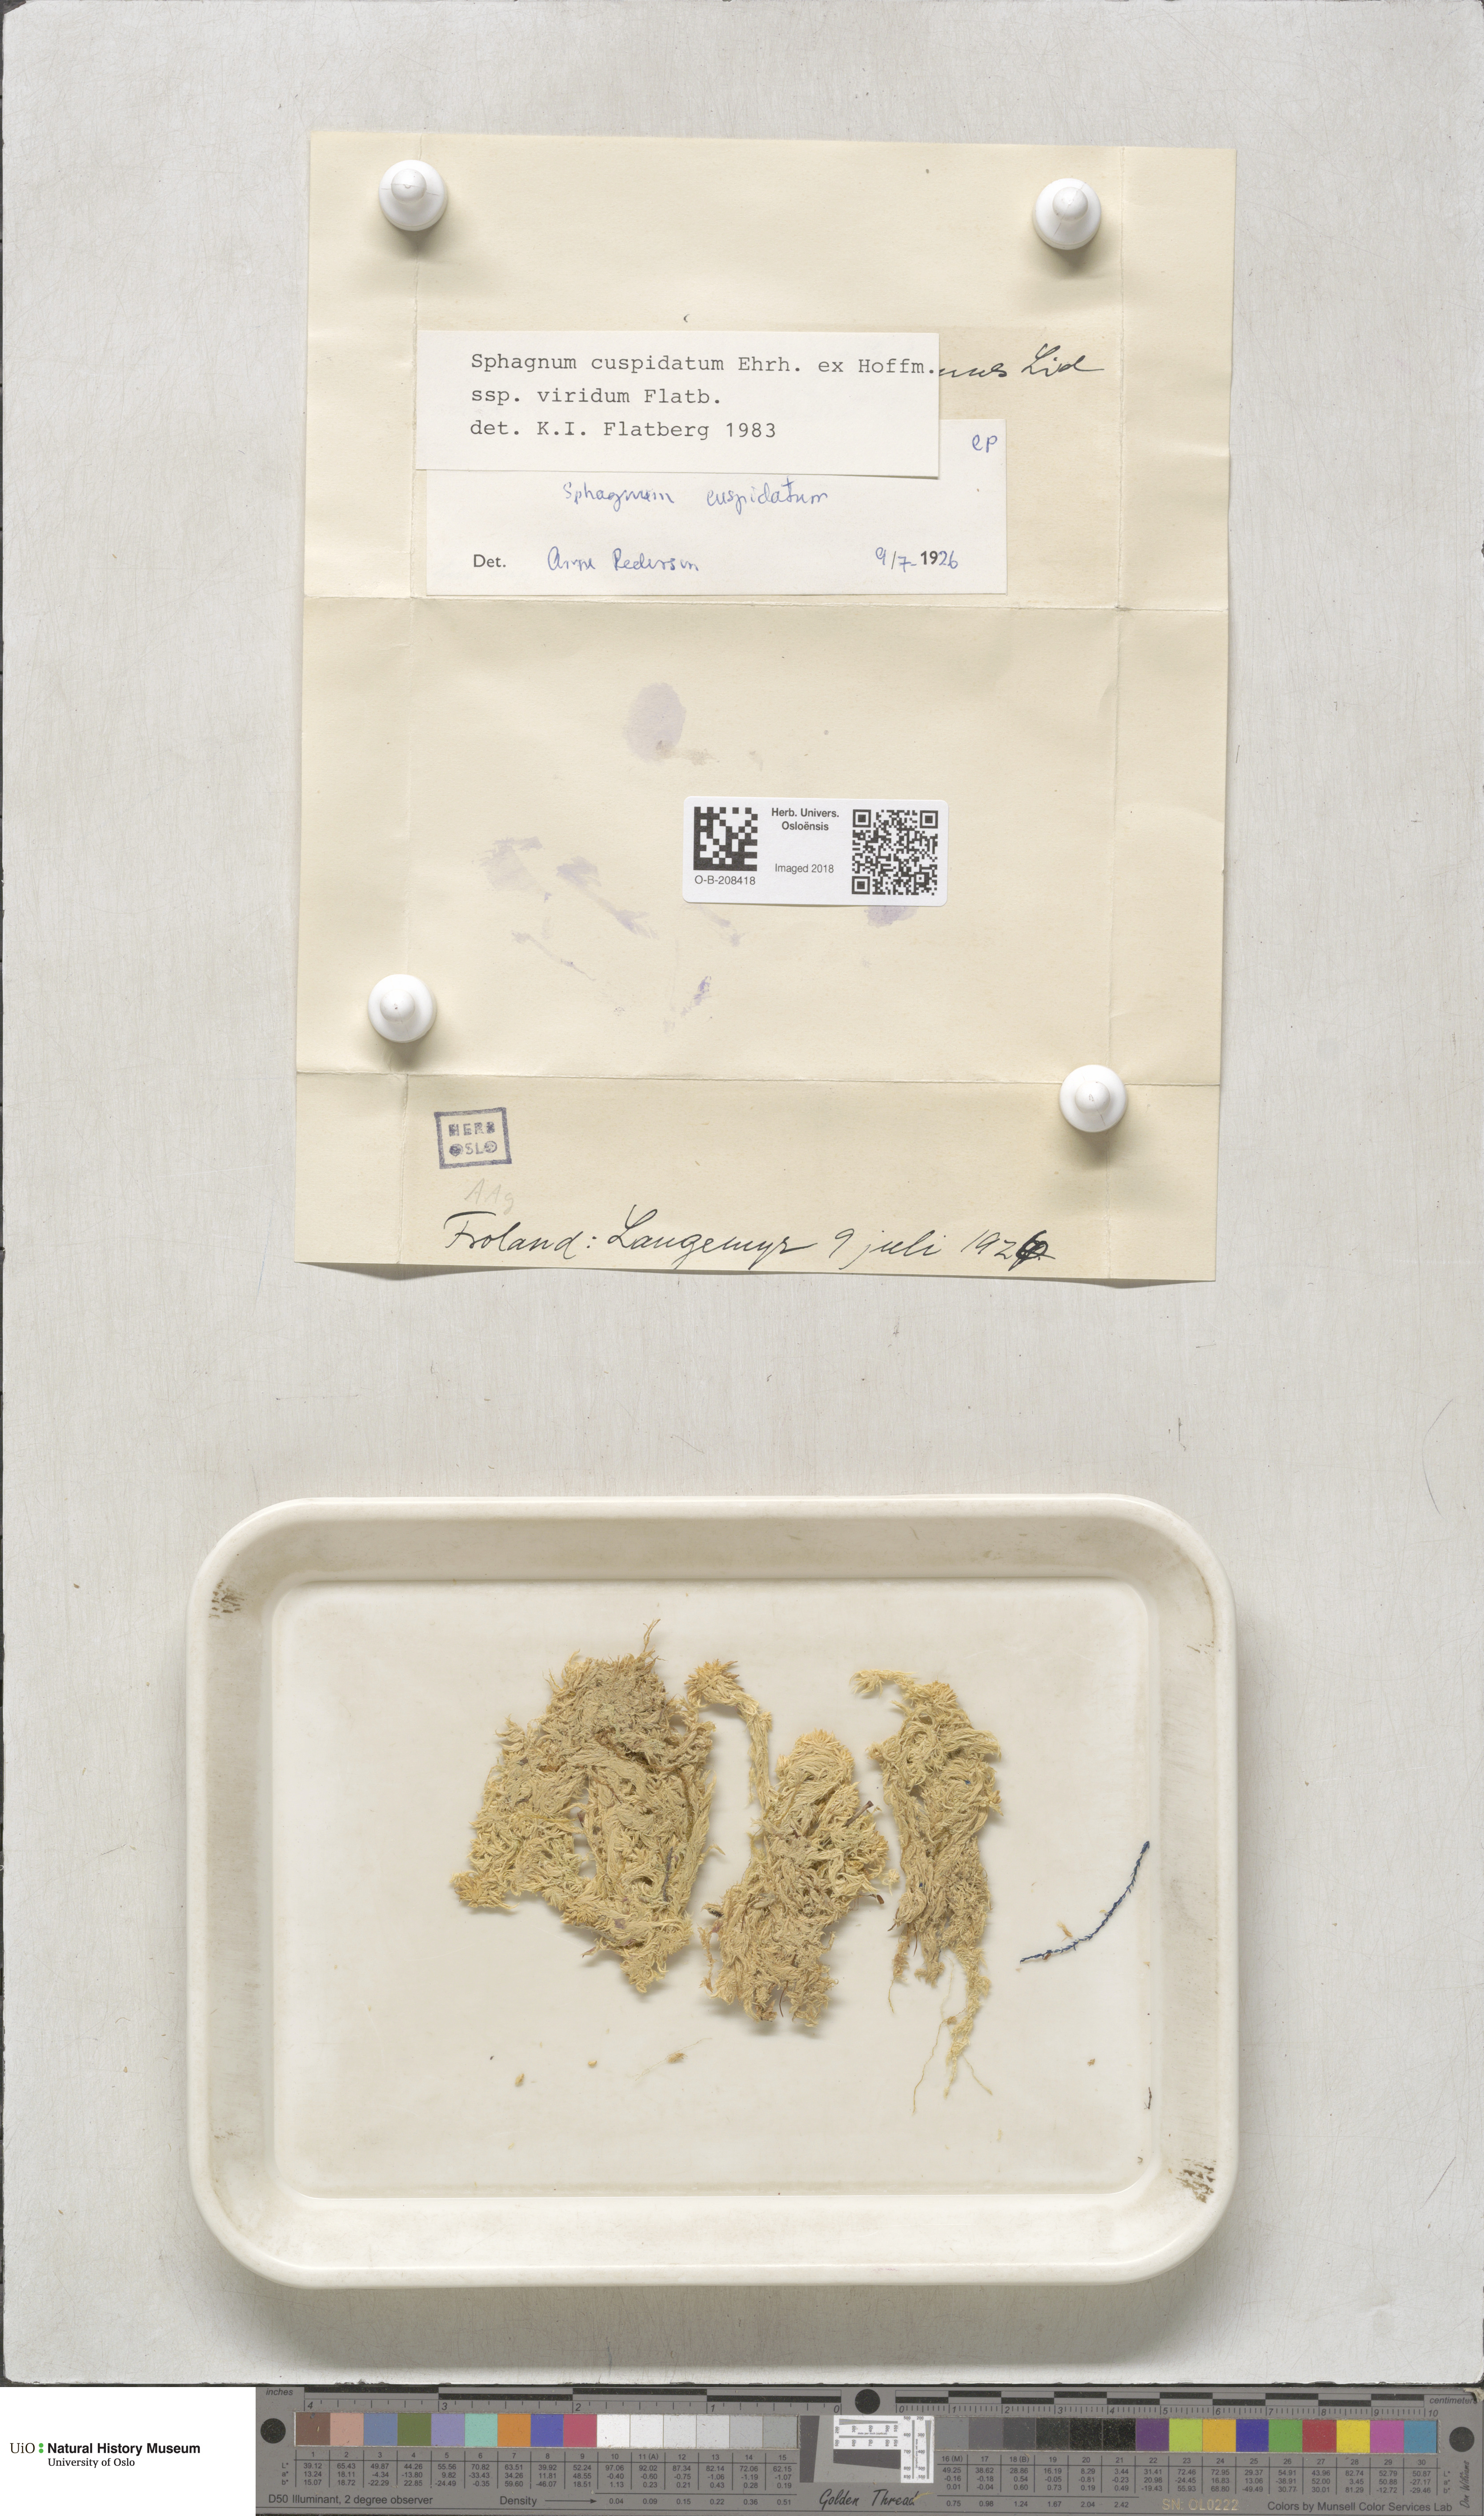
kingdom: Plantae
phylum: Bryophyta
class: Sphagnopsida
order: Sphagnales
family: Sphagnaceae
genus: Sphagnum
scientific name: Sphagnum cuspidatum
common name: Feathery peat moss
